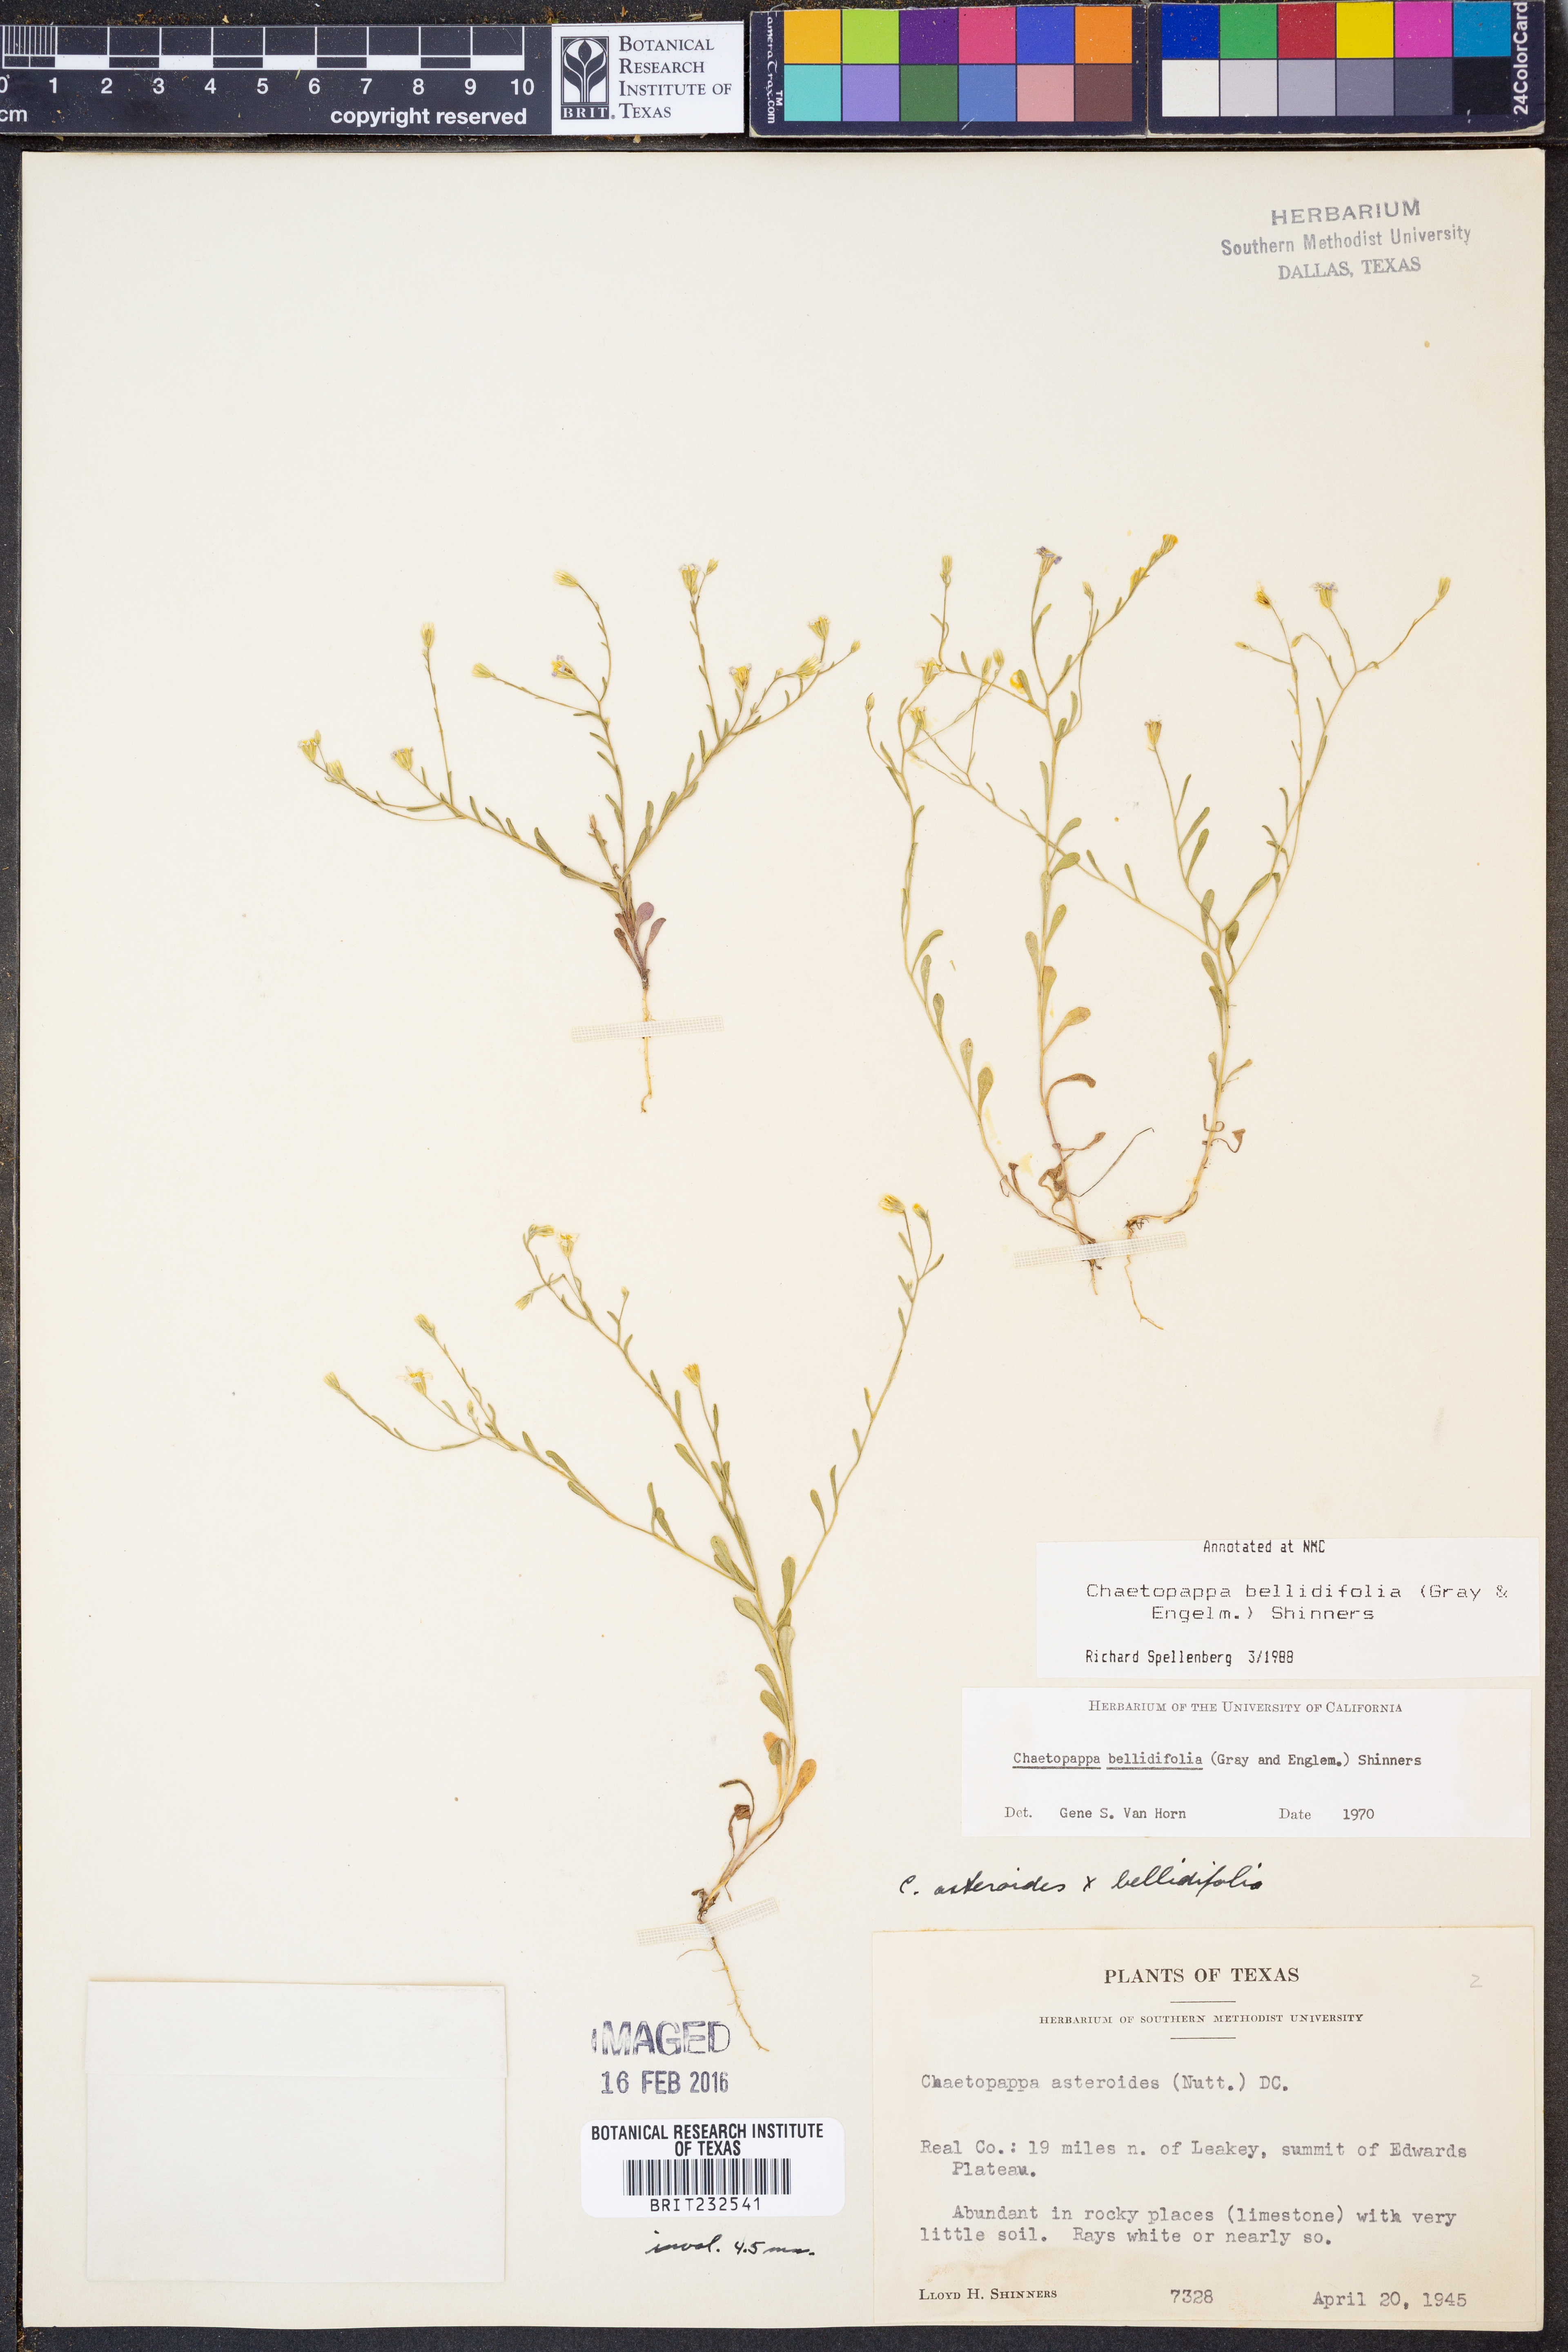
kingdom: Plantae
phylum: Tracheophyta
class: Magnoliopsida
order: Asterales
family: Asteraceae
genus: Chaetopappa
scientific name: Chaetopappa bellidifolia
